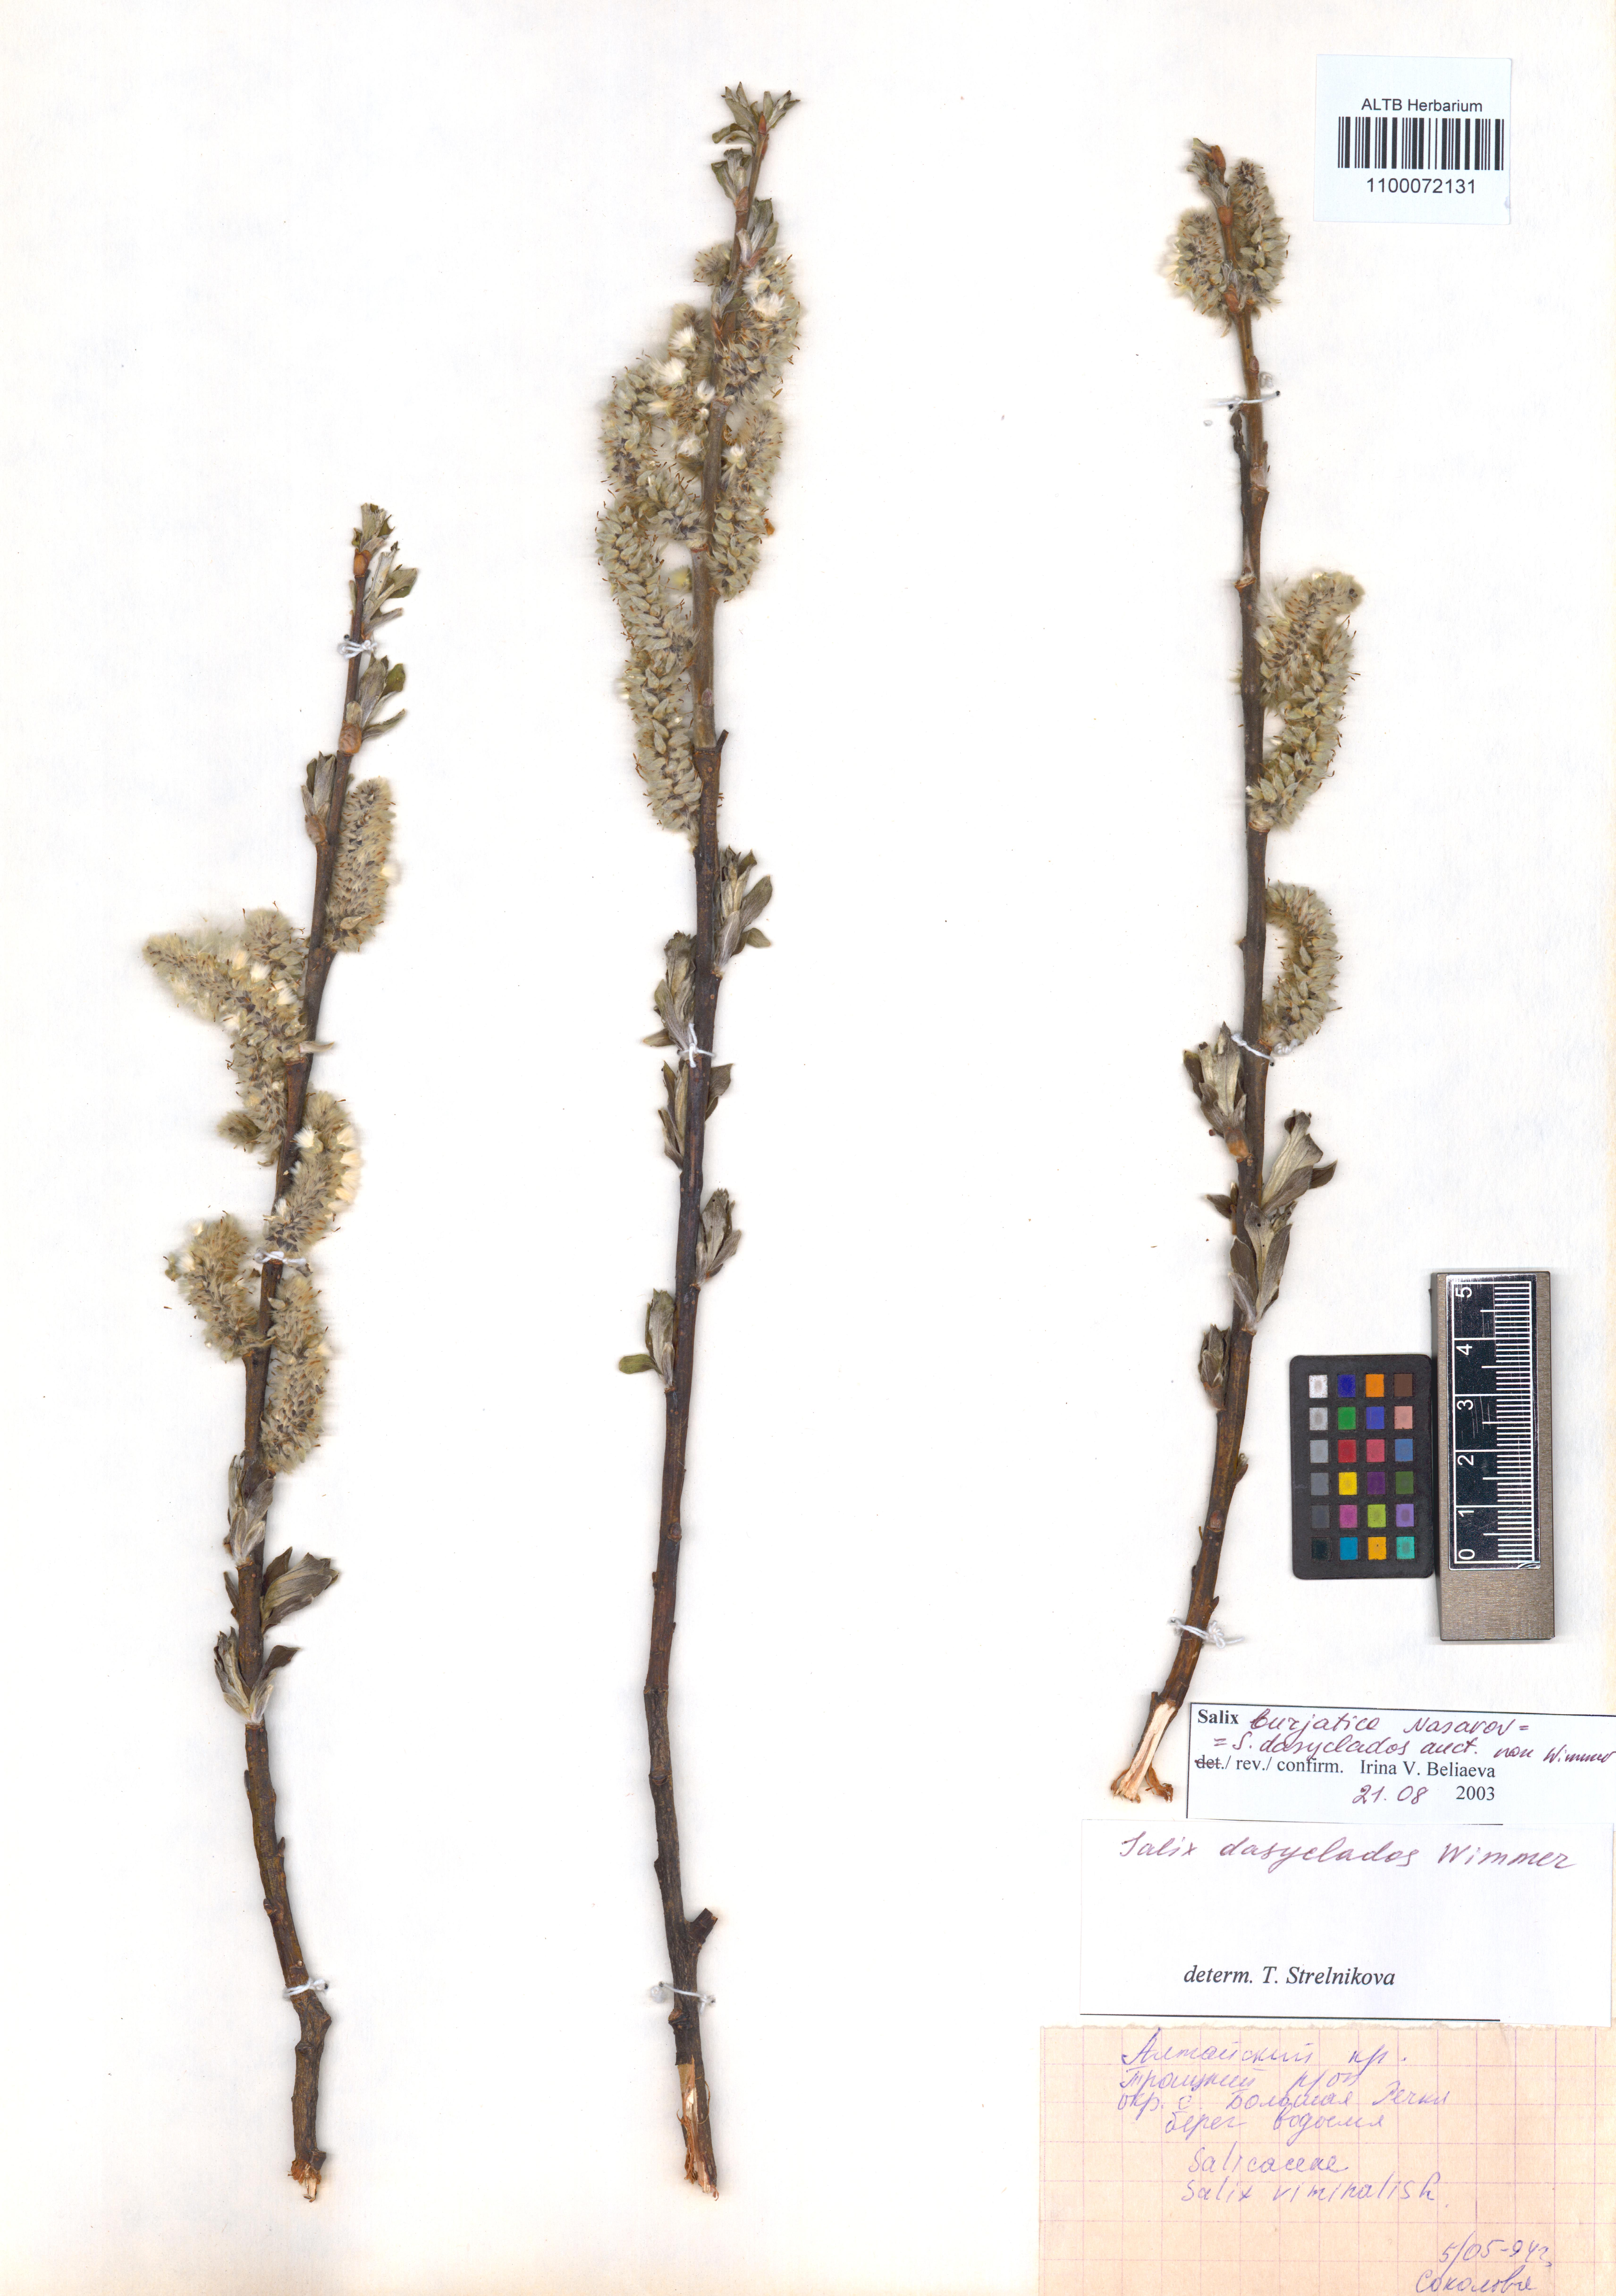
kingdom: Plantae
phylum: Tracheophyta
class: Magnoliopsida
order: Malpighiales
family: Salicaceae
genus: Salix
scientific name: Salix gmelinii
